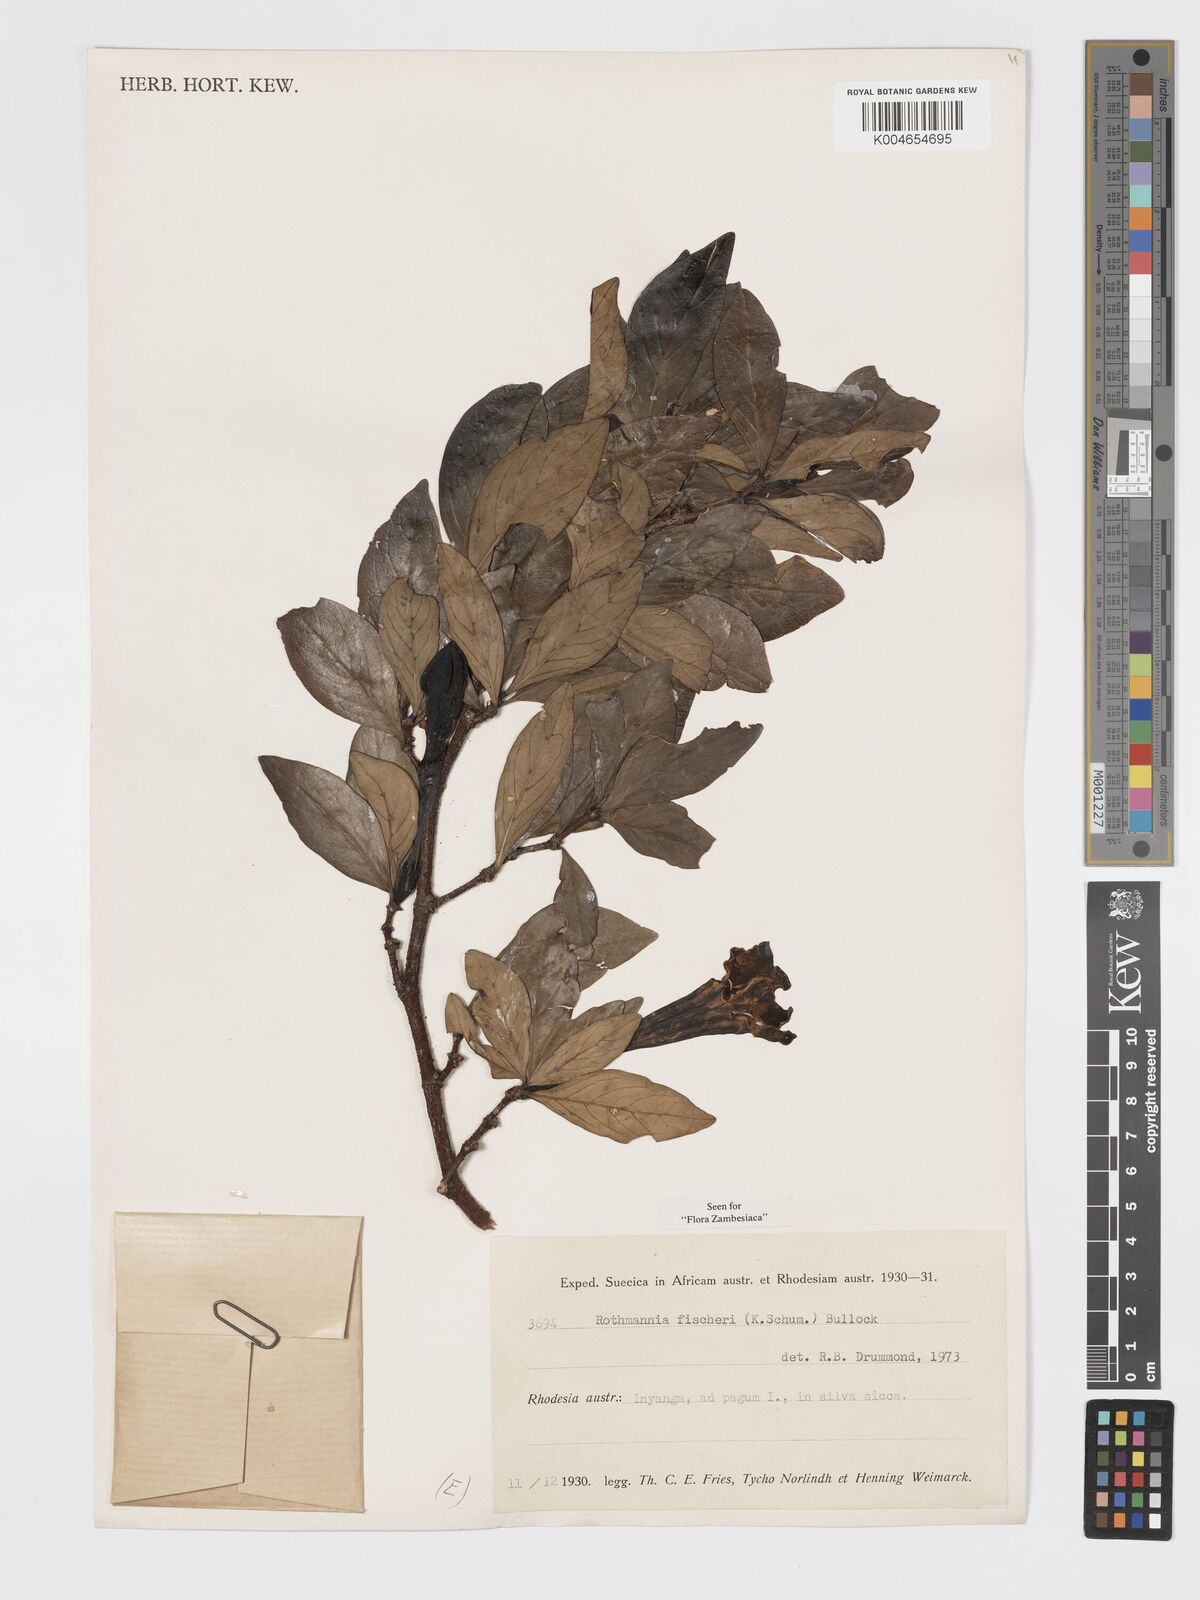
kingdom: Plantae
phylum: Tracheophyta
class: Magnoliopsida
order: Gentianales
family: Rubiaceae
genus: Rothmannia
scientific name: Rothmannia fischeri
